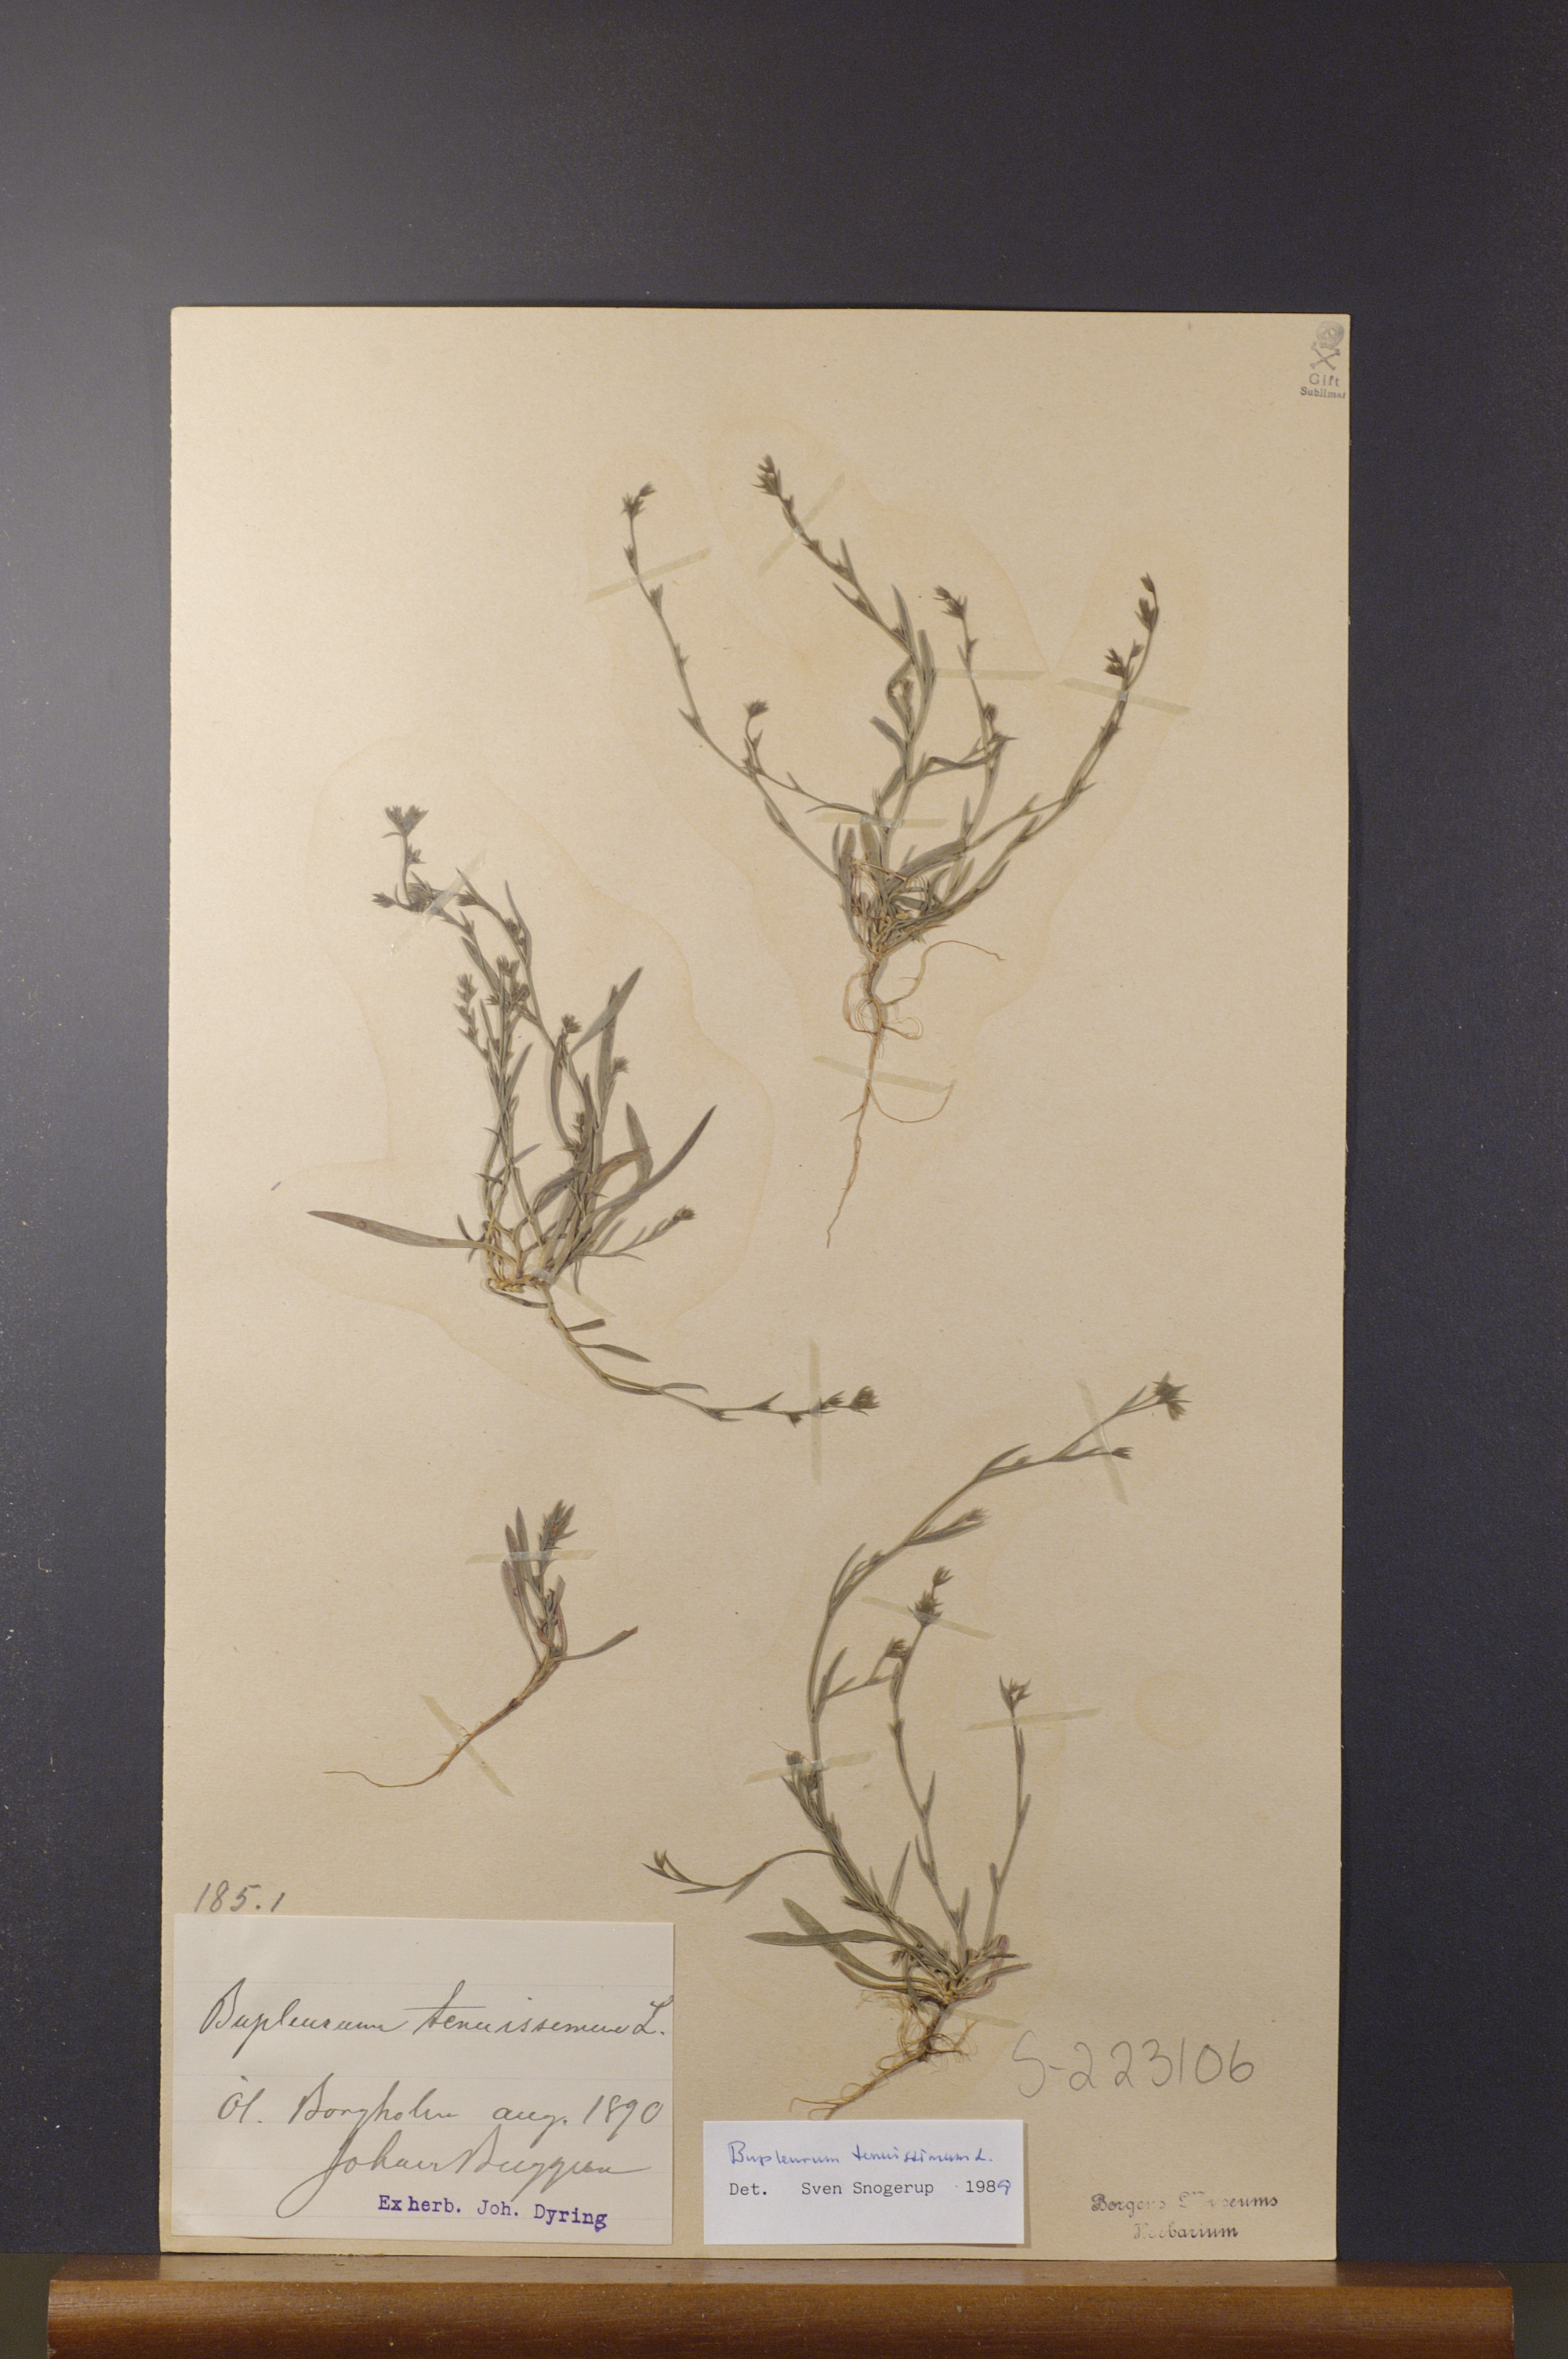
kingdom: Plantae
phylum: Tracheophyta
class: Magnoliopsida
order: Apiales
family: Apiaceae
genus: Bupleurum
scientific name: Bupleurum tenuissimum
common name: Slender hare's-ear
